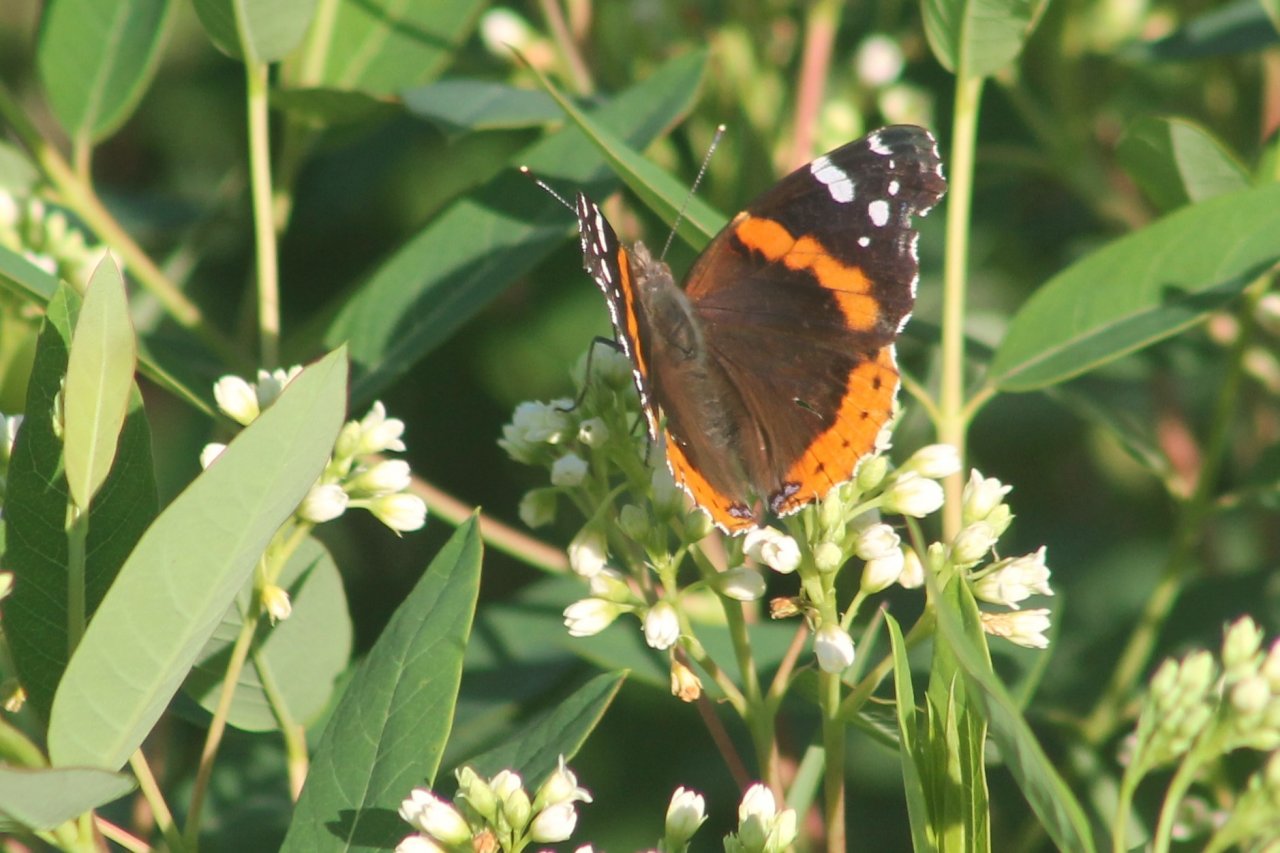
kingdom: Animalia
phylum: Arthropoda
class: Insecta
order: Lepidoptera
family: Nymphalidae
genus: Vanessa
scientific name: Vanessa atalanta
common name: Red Admiral
